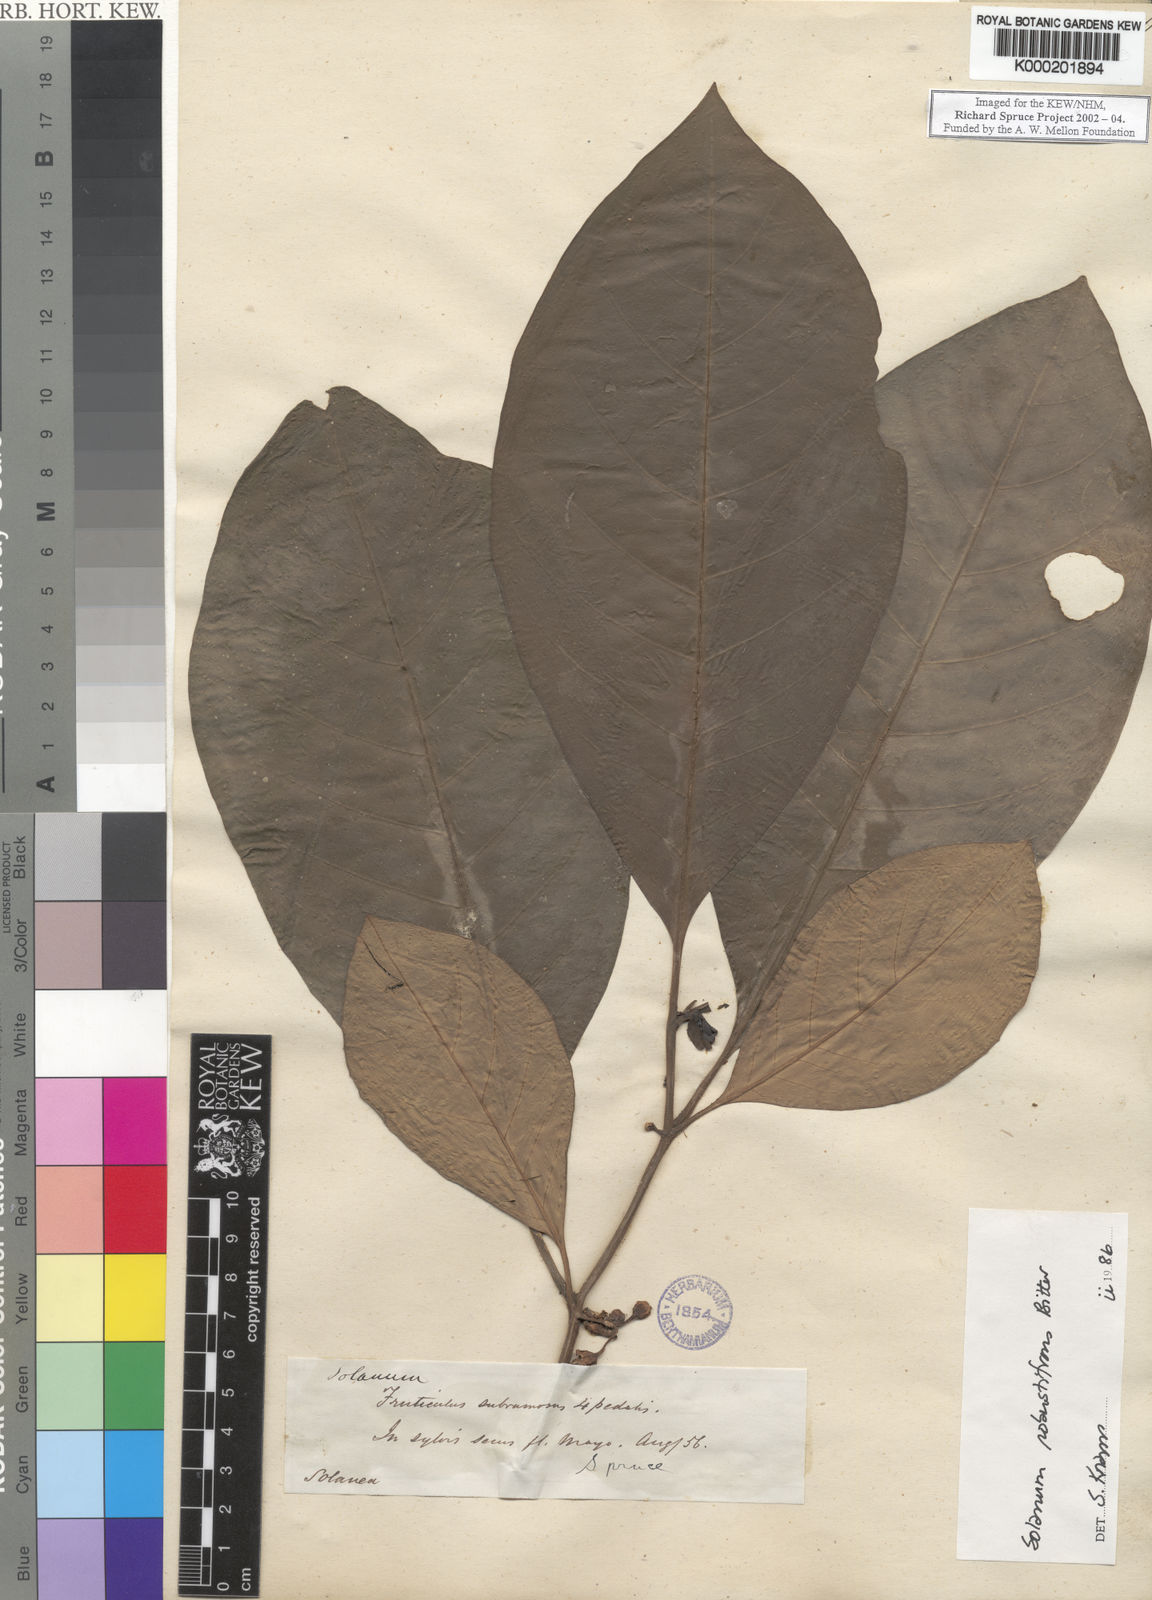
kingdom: Plantae
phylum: Tracheophyta
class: Magnoliopsida
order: Solanales
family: Solanaceae
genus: Solanum
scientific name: Solanum robustifrons
